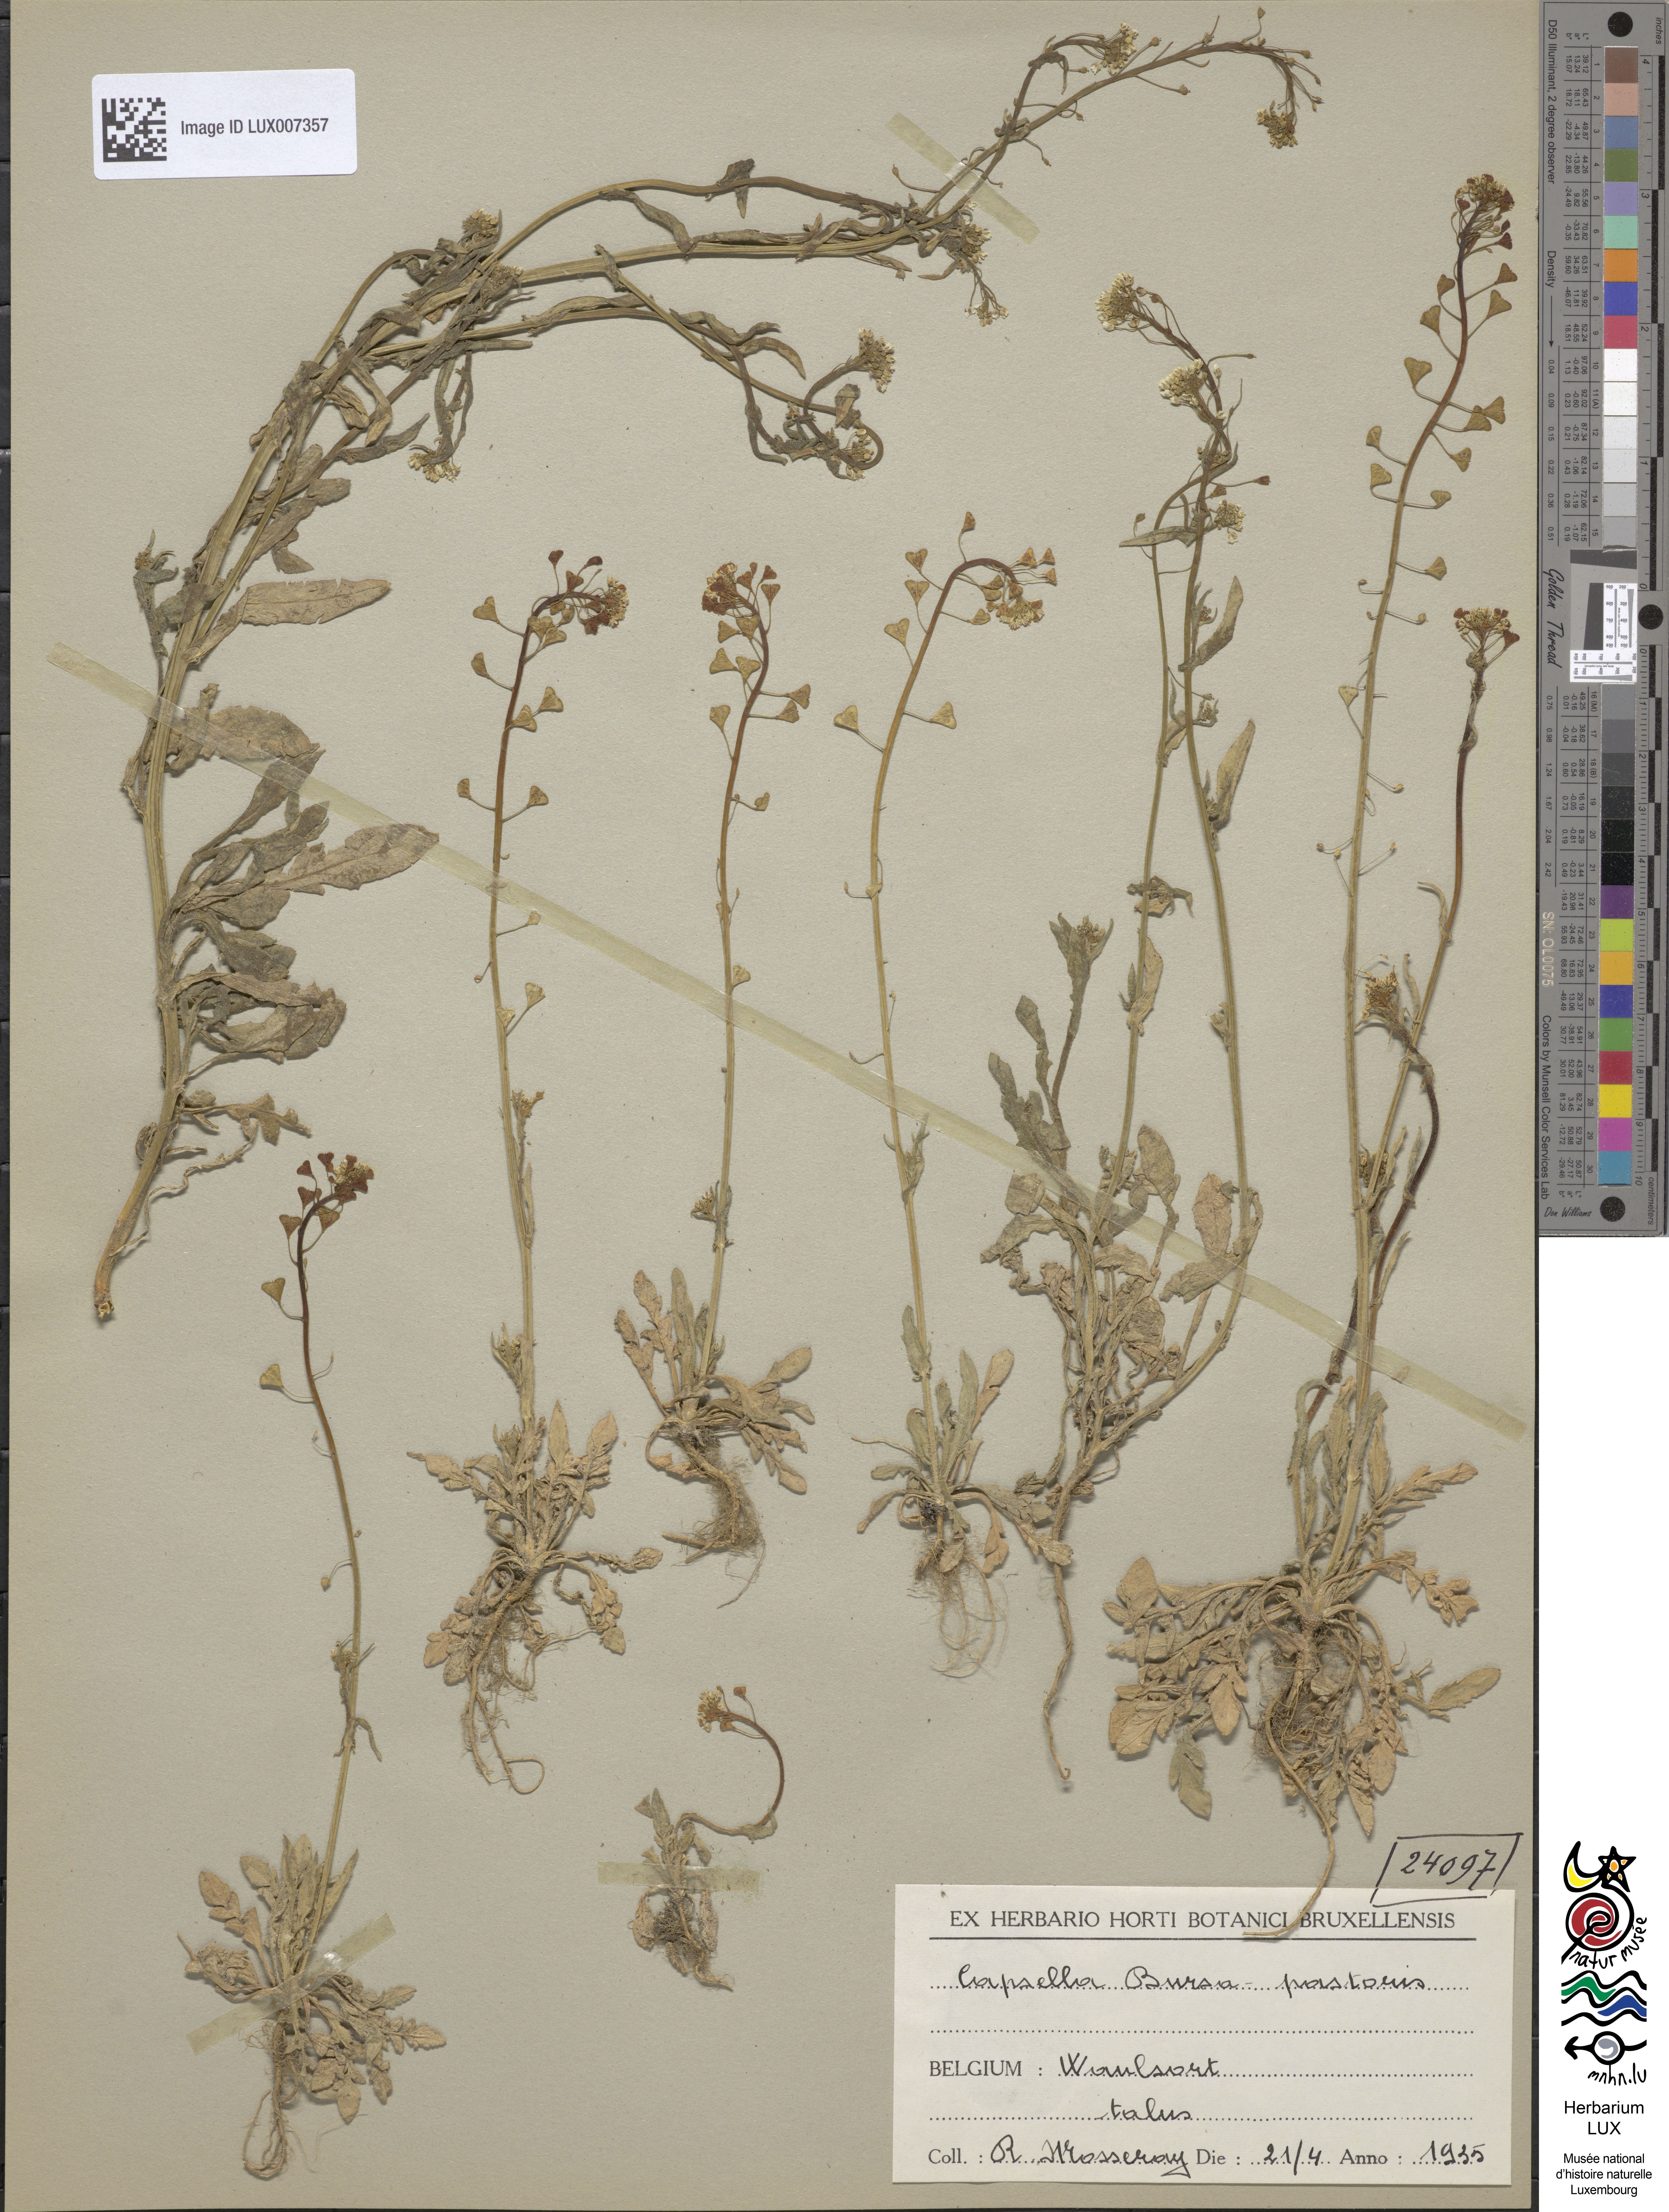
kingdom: Plantae
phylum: Tracheophyta
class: Magnoliopsida
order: Brassicales
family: Brassicaceae
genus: Capsella
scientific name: Capsella bursa-pastoris
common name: Shepherd's purse
